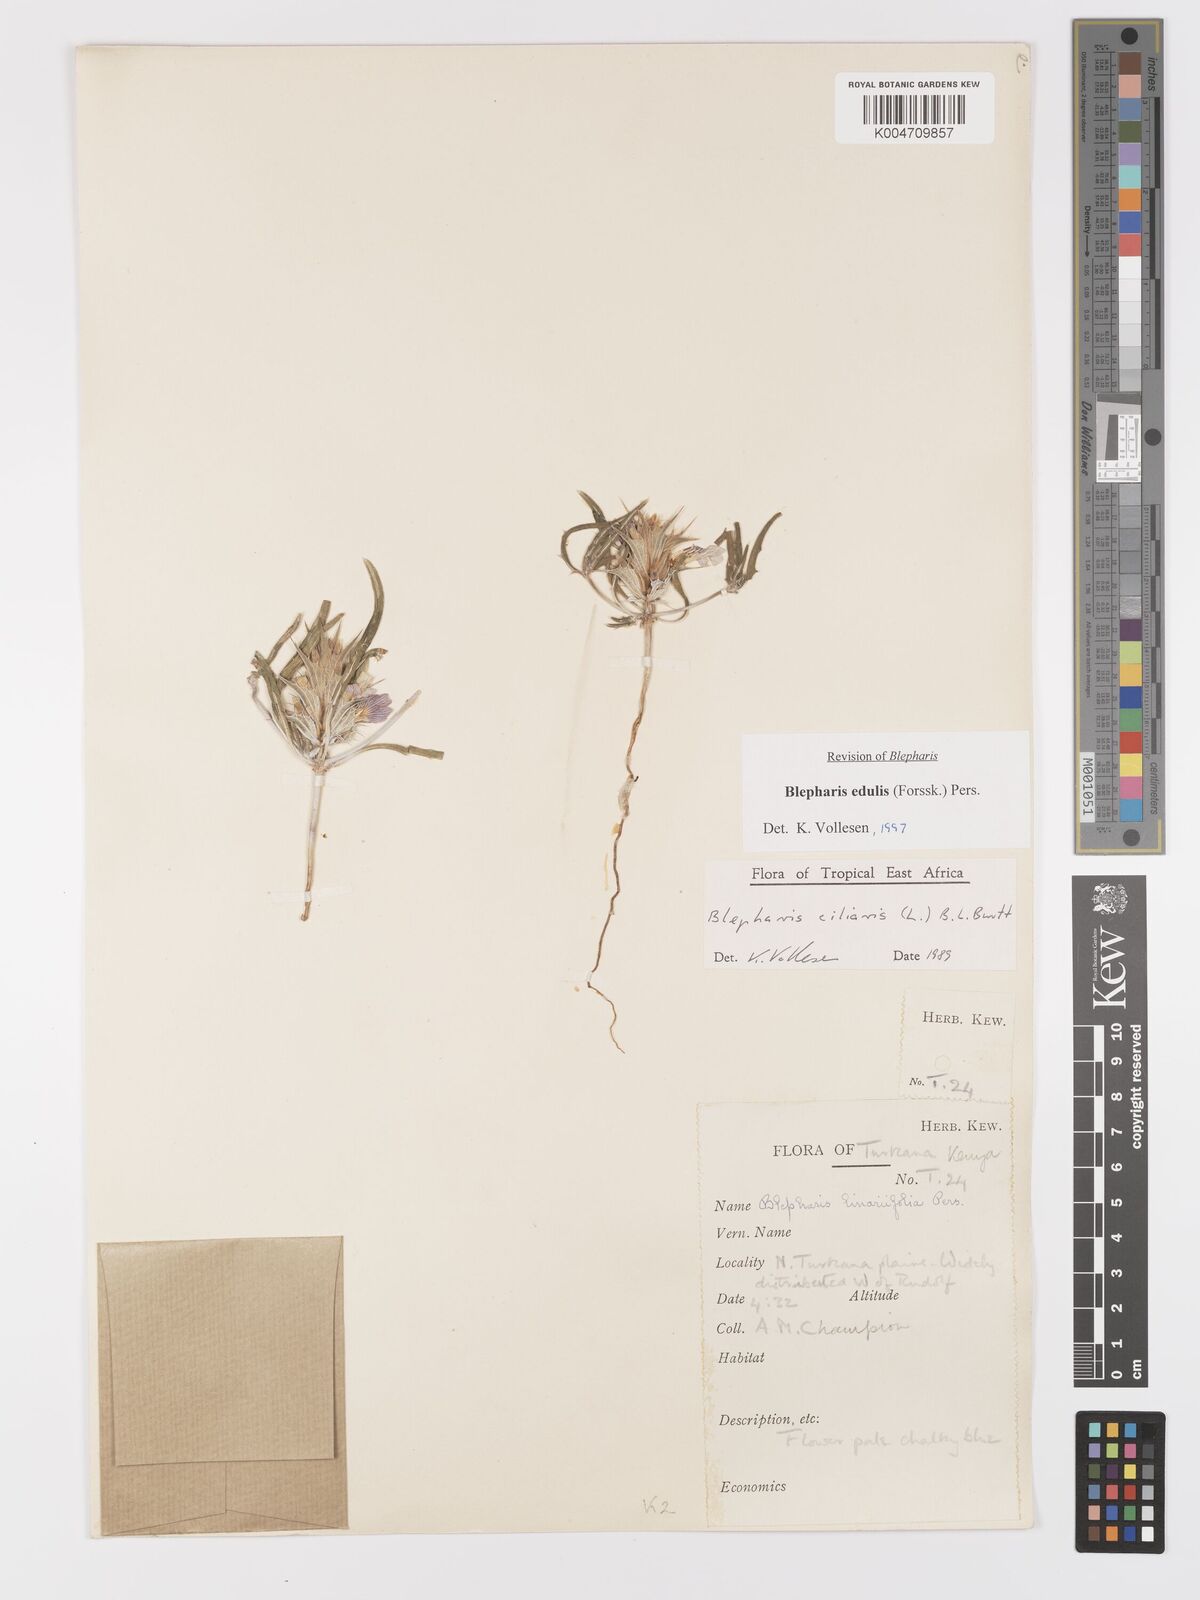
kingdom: Plantae
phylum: Tracheophyta
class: Magnoliopsida
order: Lamiales
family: Acanthaceae
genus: Blepharis
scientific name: Blepharis edulis
